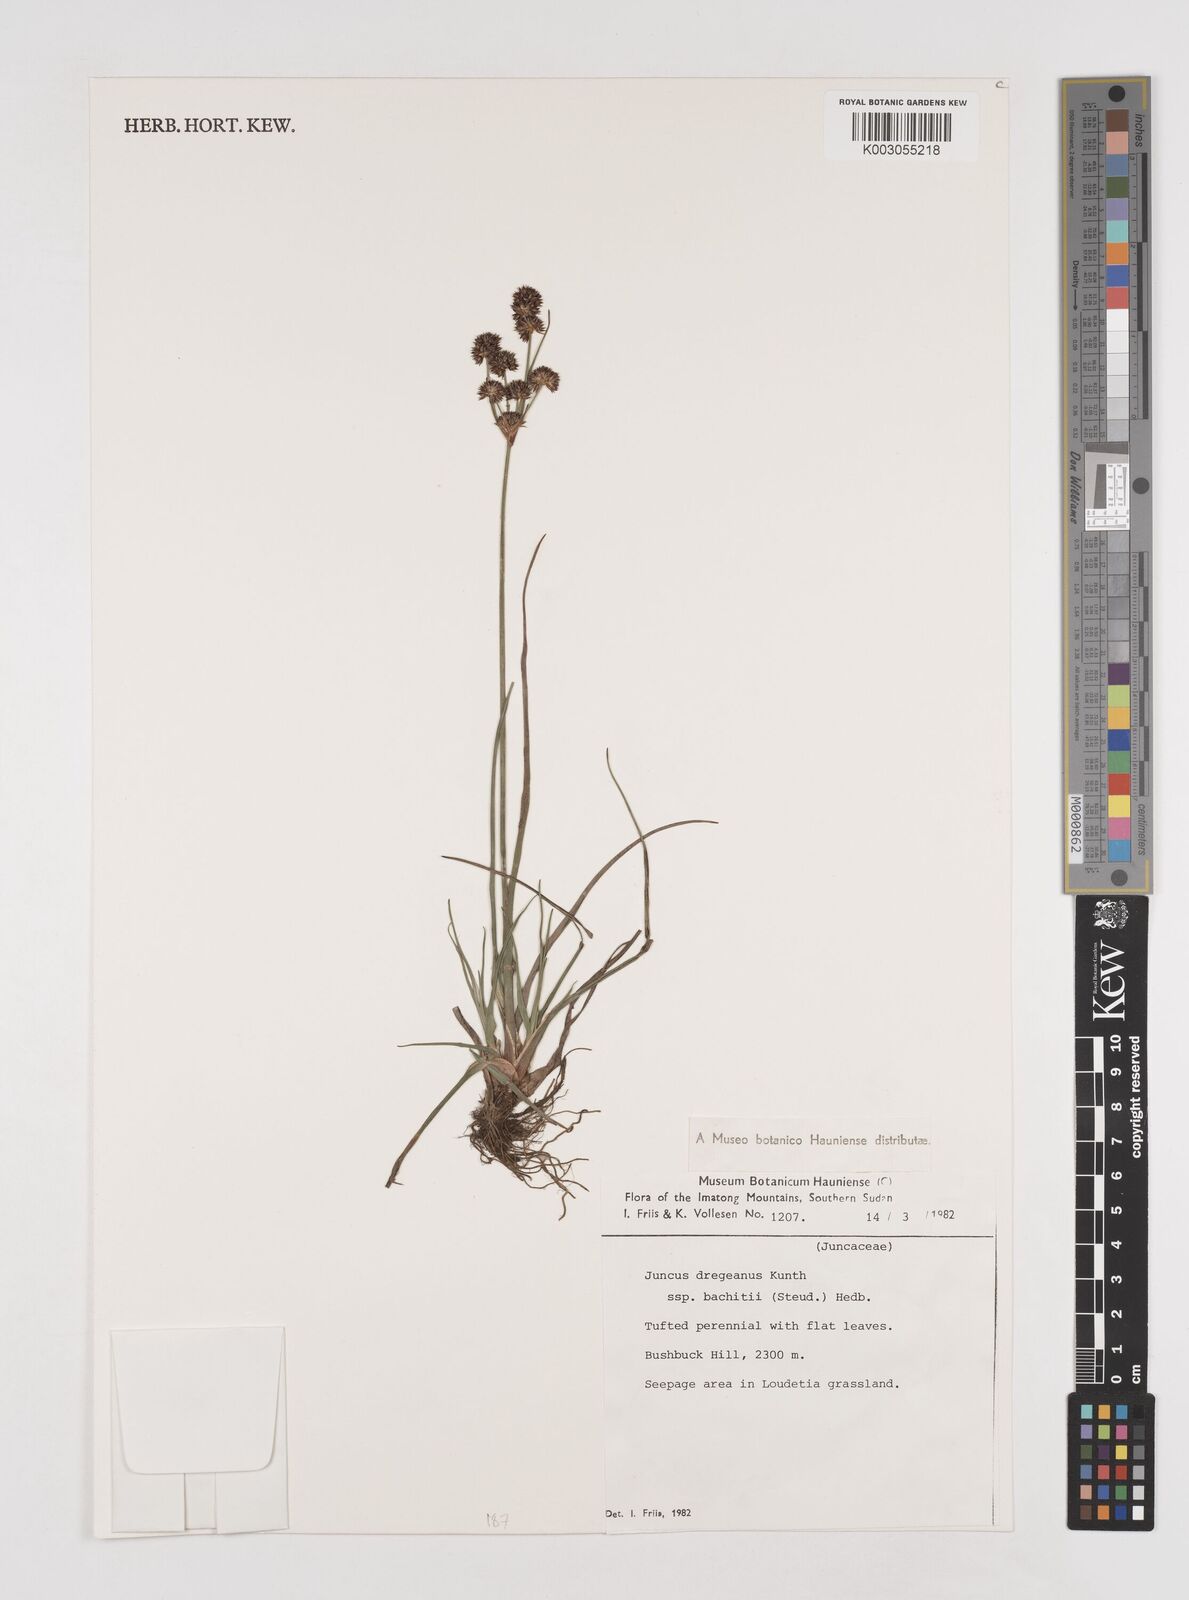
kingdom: Plantae
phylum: Tracheophyta
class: Liliopsida
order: Poales
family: Juncaceae
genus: Juncus
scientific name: Juncus dregeanus
